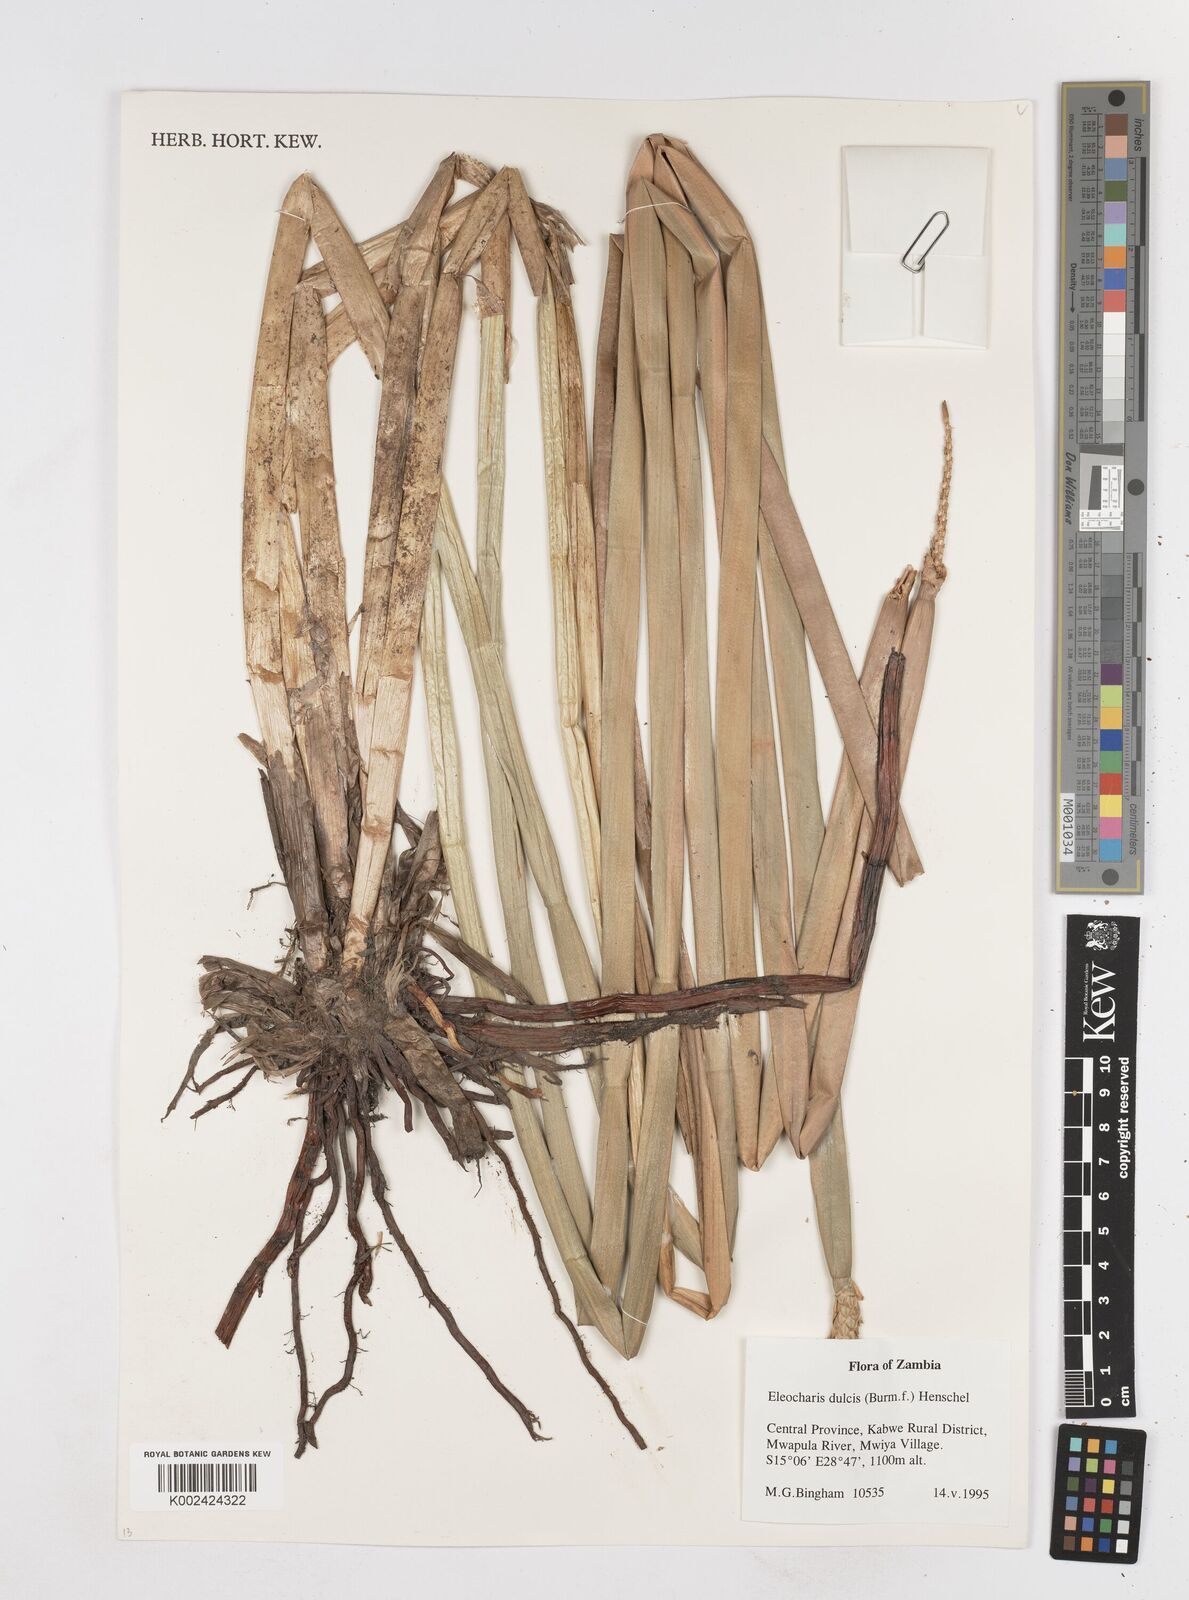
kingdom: Plantae
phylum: Tracheophyta
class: Liliopsida
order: Poales
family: Cyperaceae
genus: Eleocharis
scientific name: Eleocharis dulcis
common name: Chinese water chestnut
